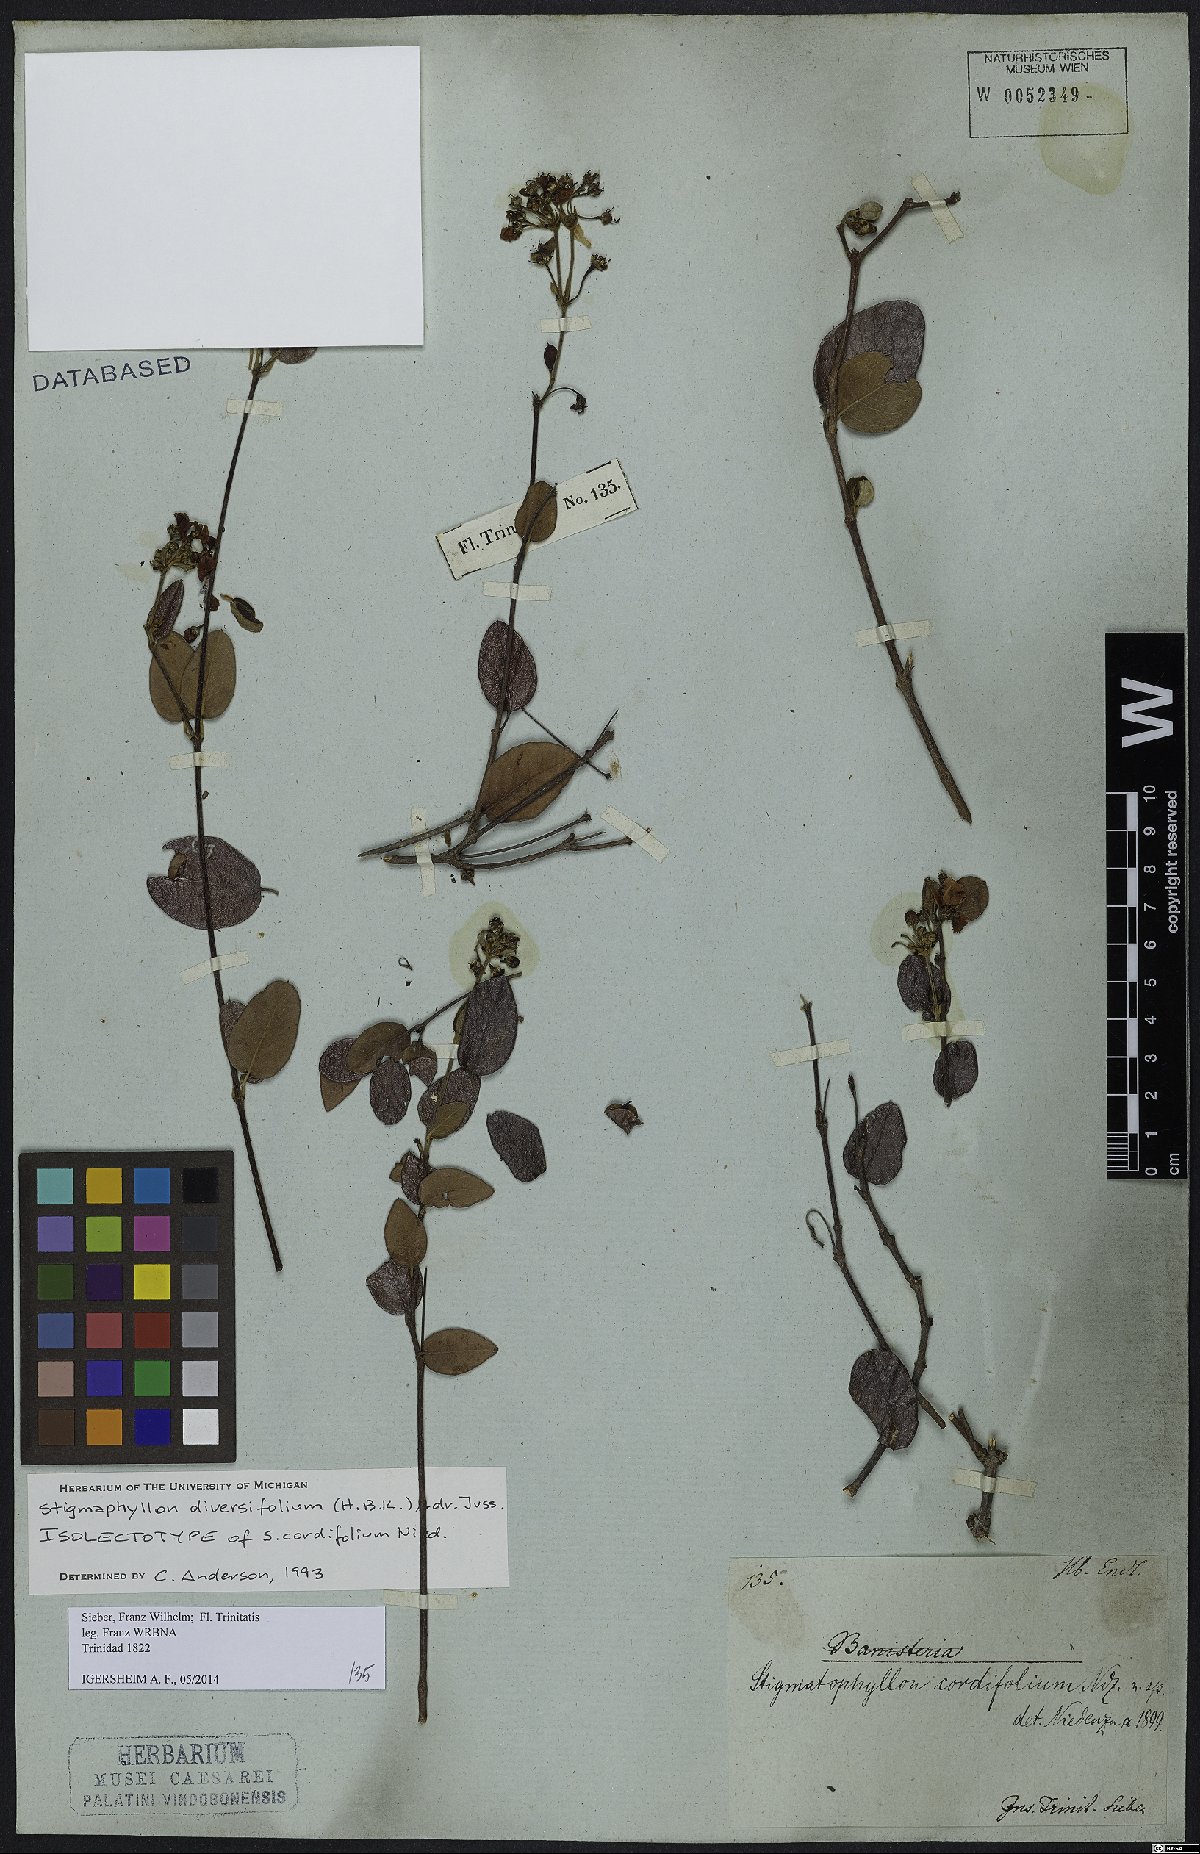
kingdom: Plantae
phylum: Tracheophyta
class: Magnoliopsida
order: Malpighiales
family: Malpighiaceae
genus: Stigmaphyllon
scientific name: Stigmaphyllon diversifolium
